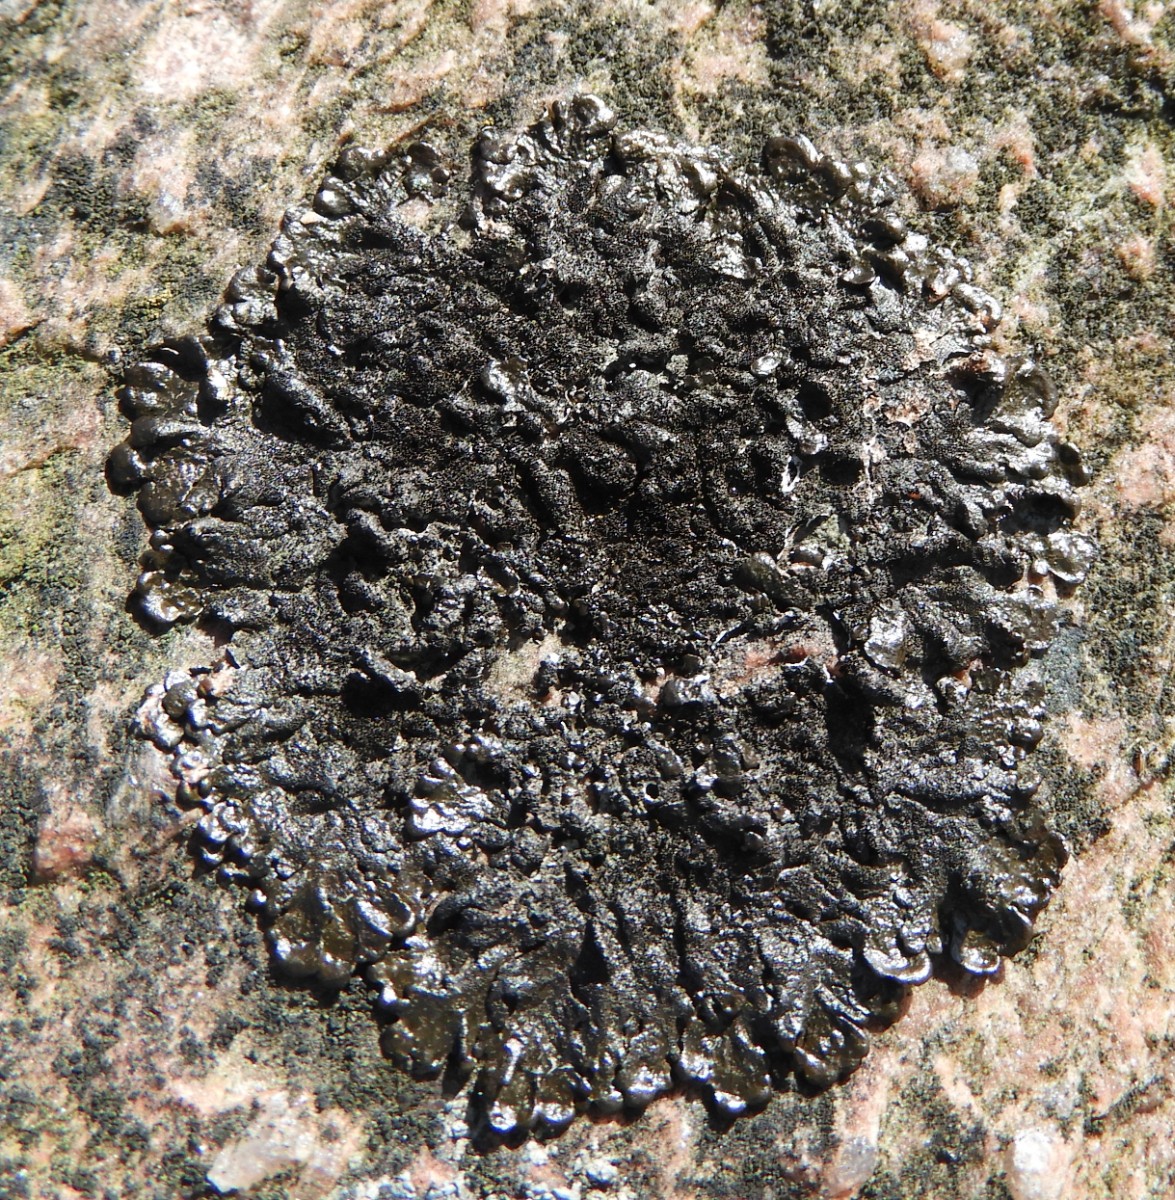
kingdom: Fungi
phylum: Ascomycota
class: Lecanoromycetes
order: Lecanorales
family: Parmeliaceae
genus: Melanelixia
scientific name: Melanelixia fuliginosa
